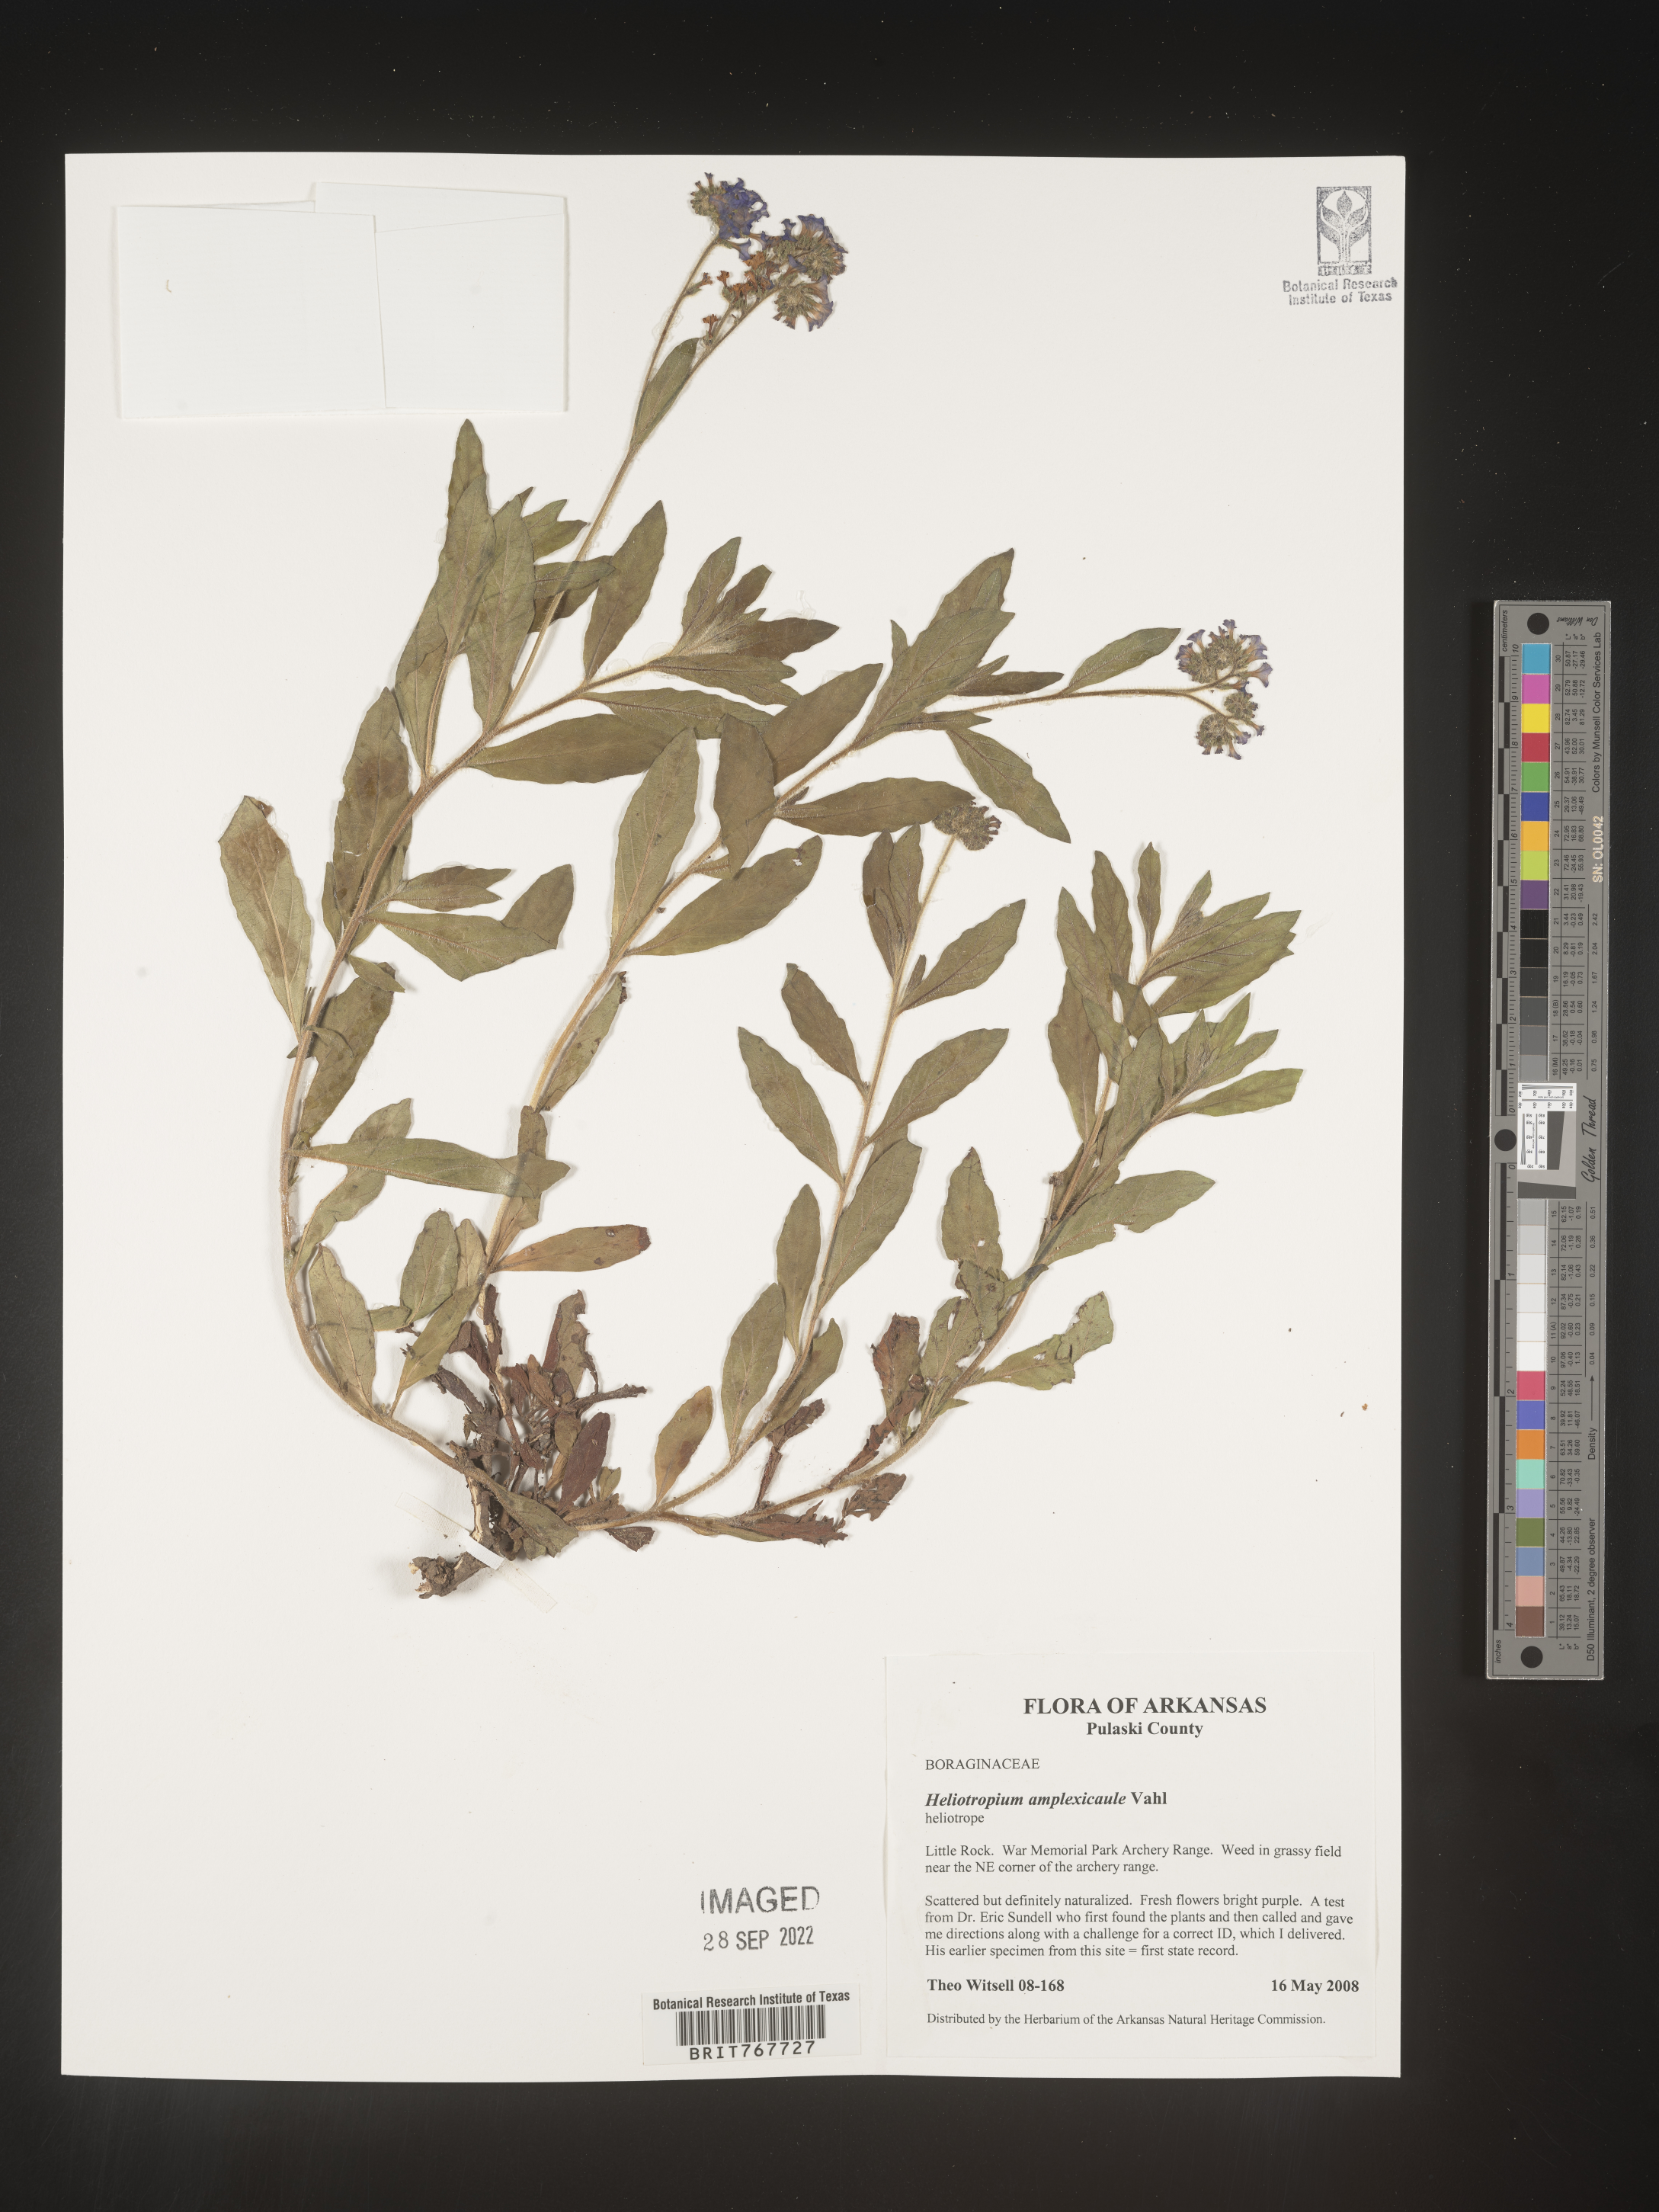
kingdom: Plantae
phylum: Tracheophyta
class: Magnoliopsida
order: Boraginales
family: Heliotropiaceae
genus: Heliotropium
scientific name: Heliotropium
